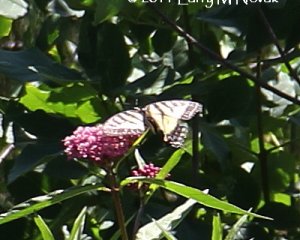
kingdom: Animalia
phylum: Arthropoda
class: Insecta
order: Lepidoptera
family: Papilionidae
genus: Pterourus
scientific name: Pterourus glaucus
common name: Eastern Tiger Swallowtail
